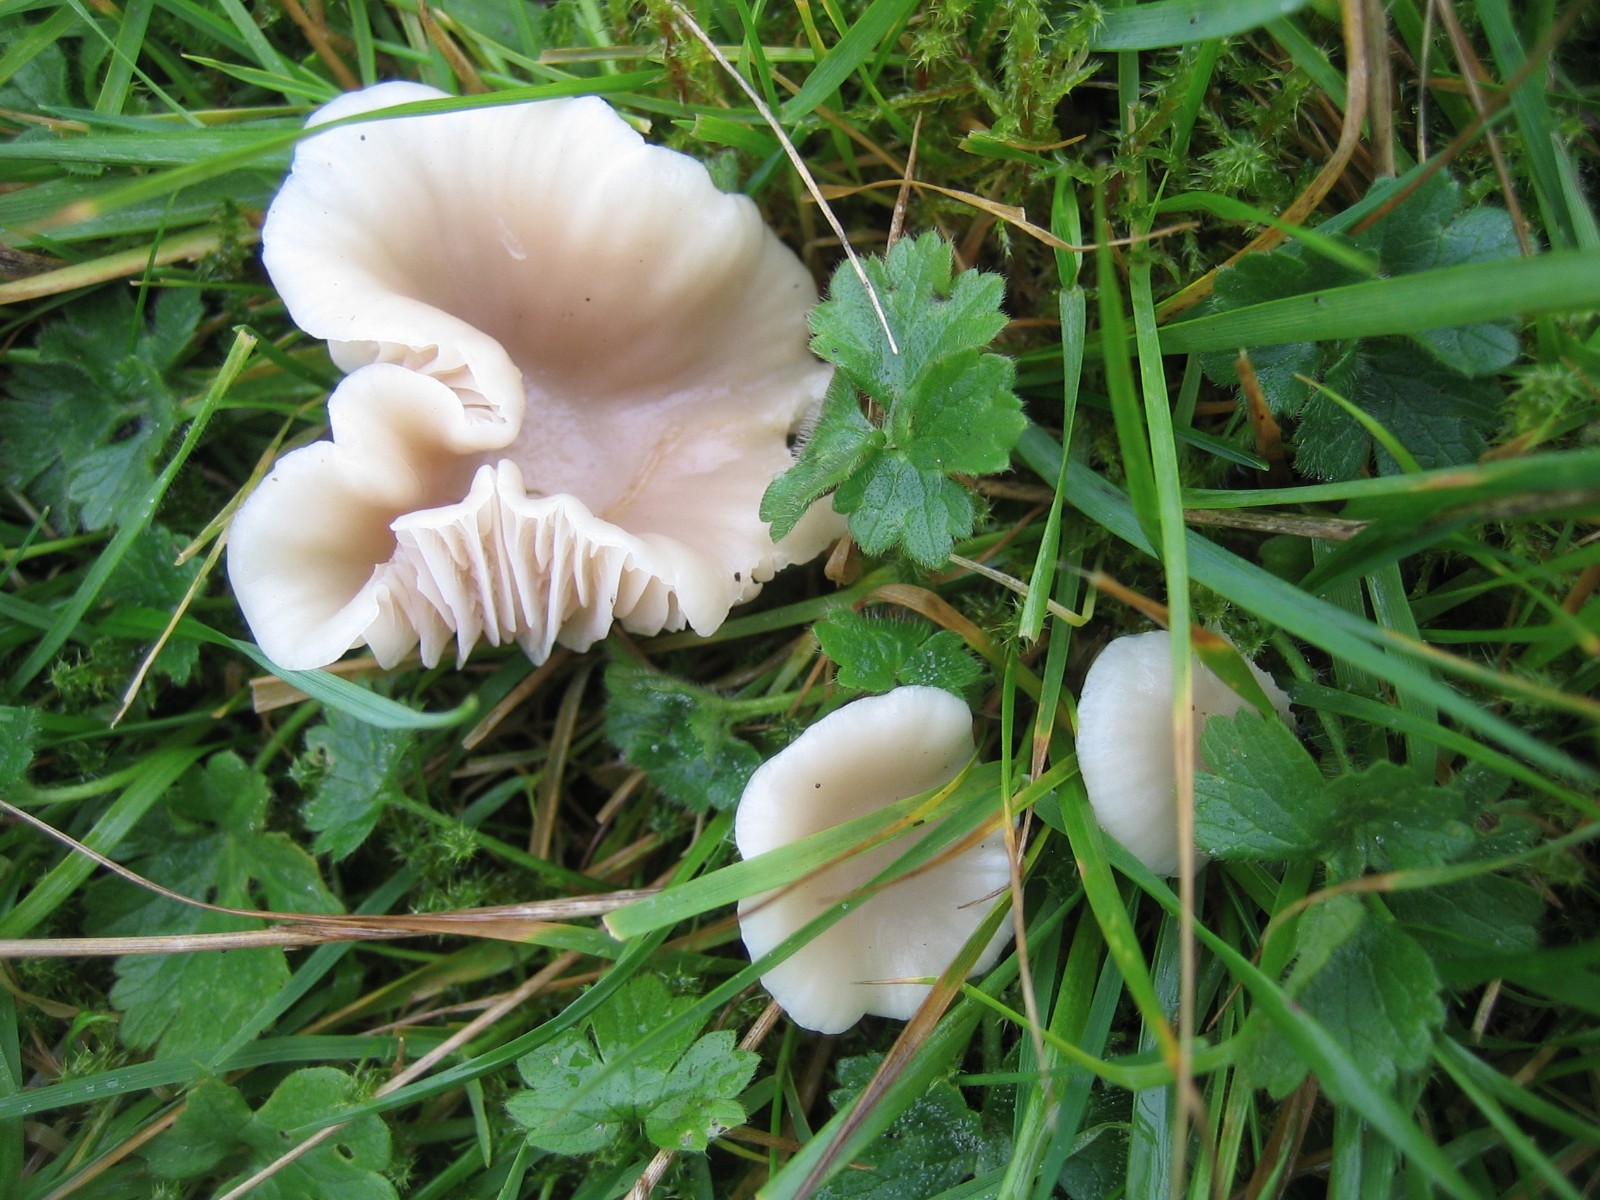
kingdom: Fungi
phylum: Basidiomycota
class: Agaricomycetes
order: Agaricales
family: Hygrophoraceae
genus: Cuphophyllus
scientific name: Cuphophyllus virgineus
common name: isabella-vokshat
